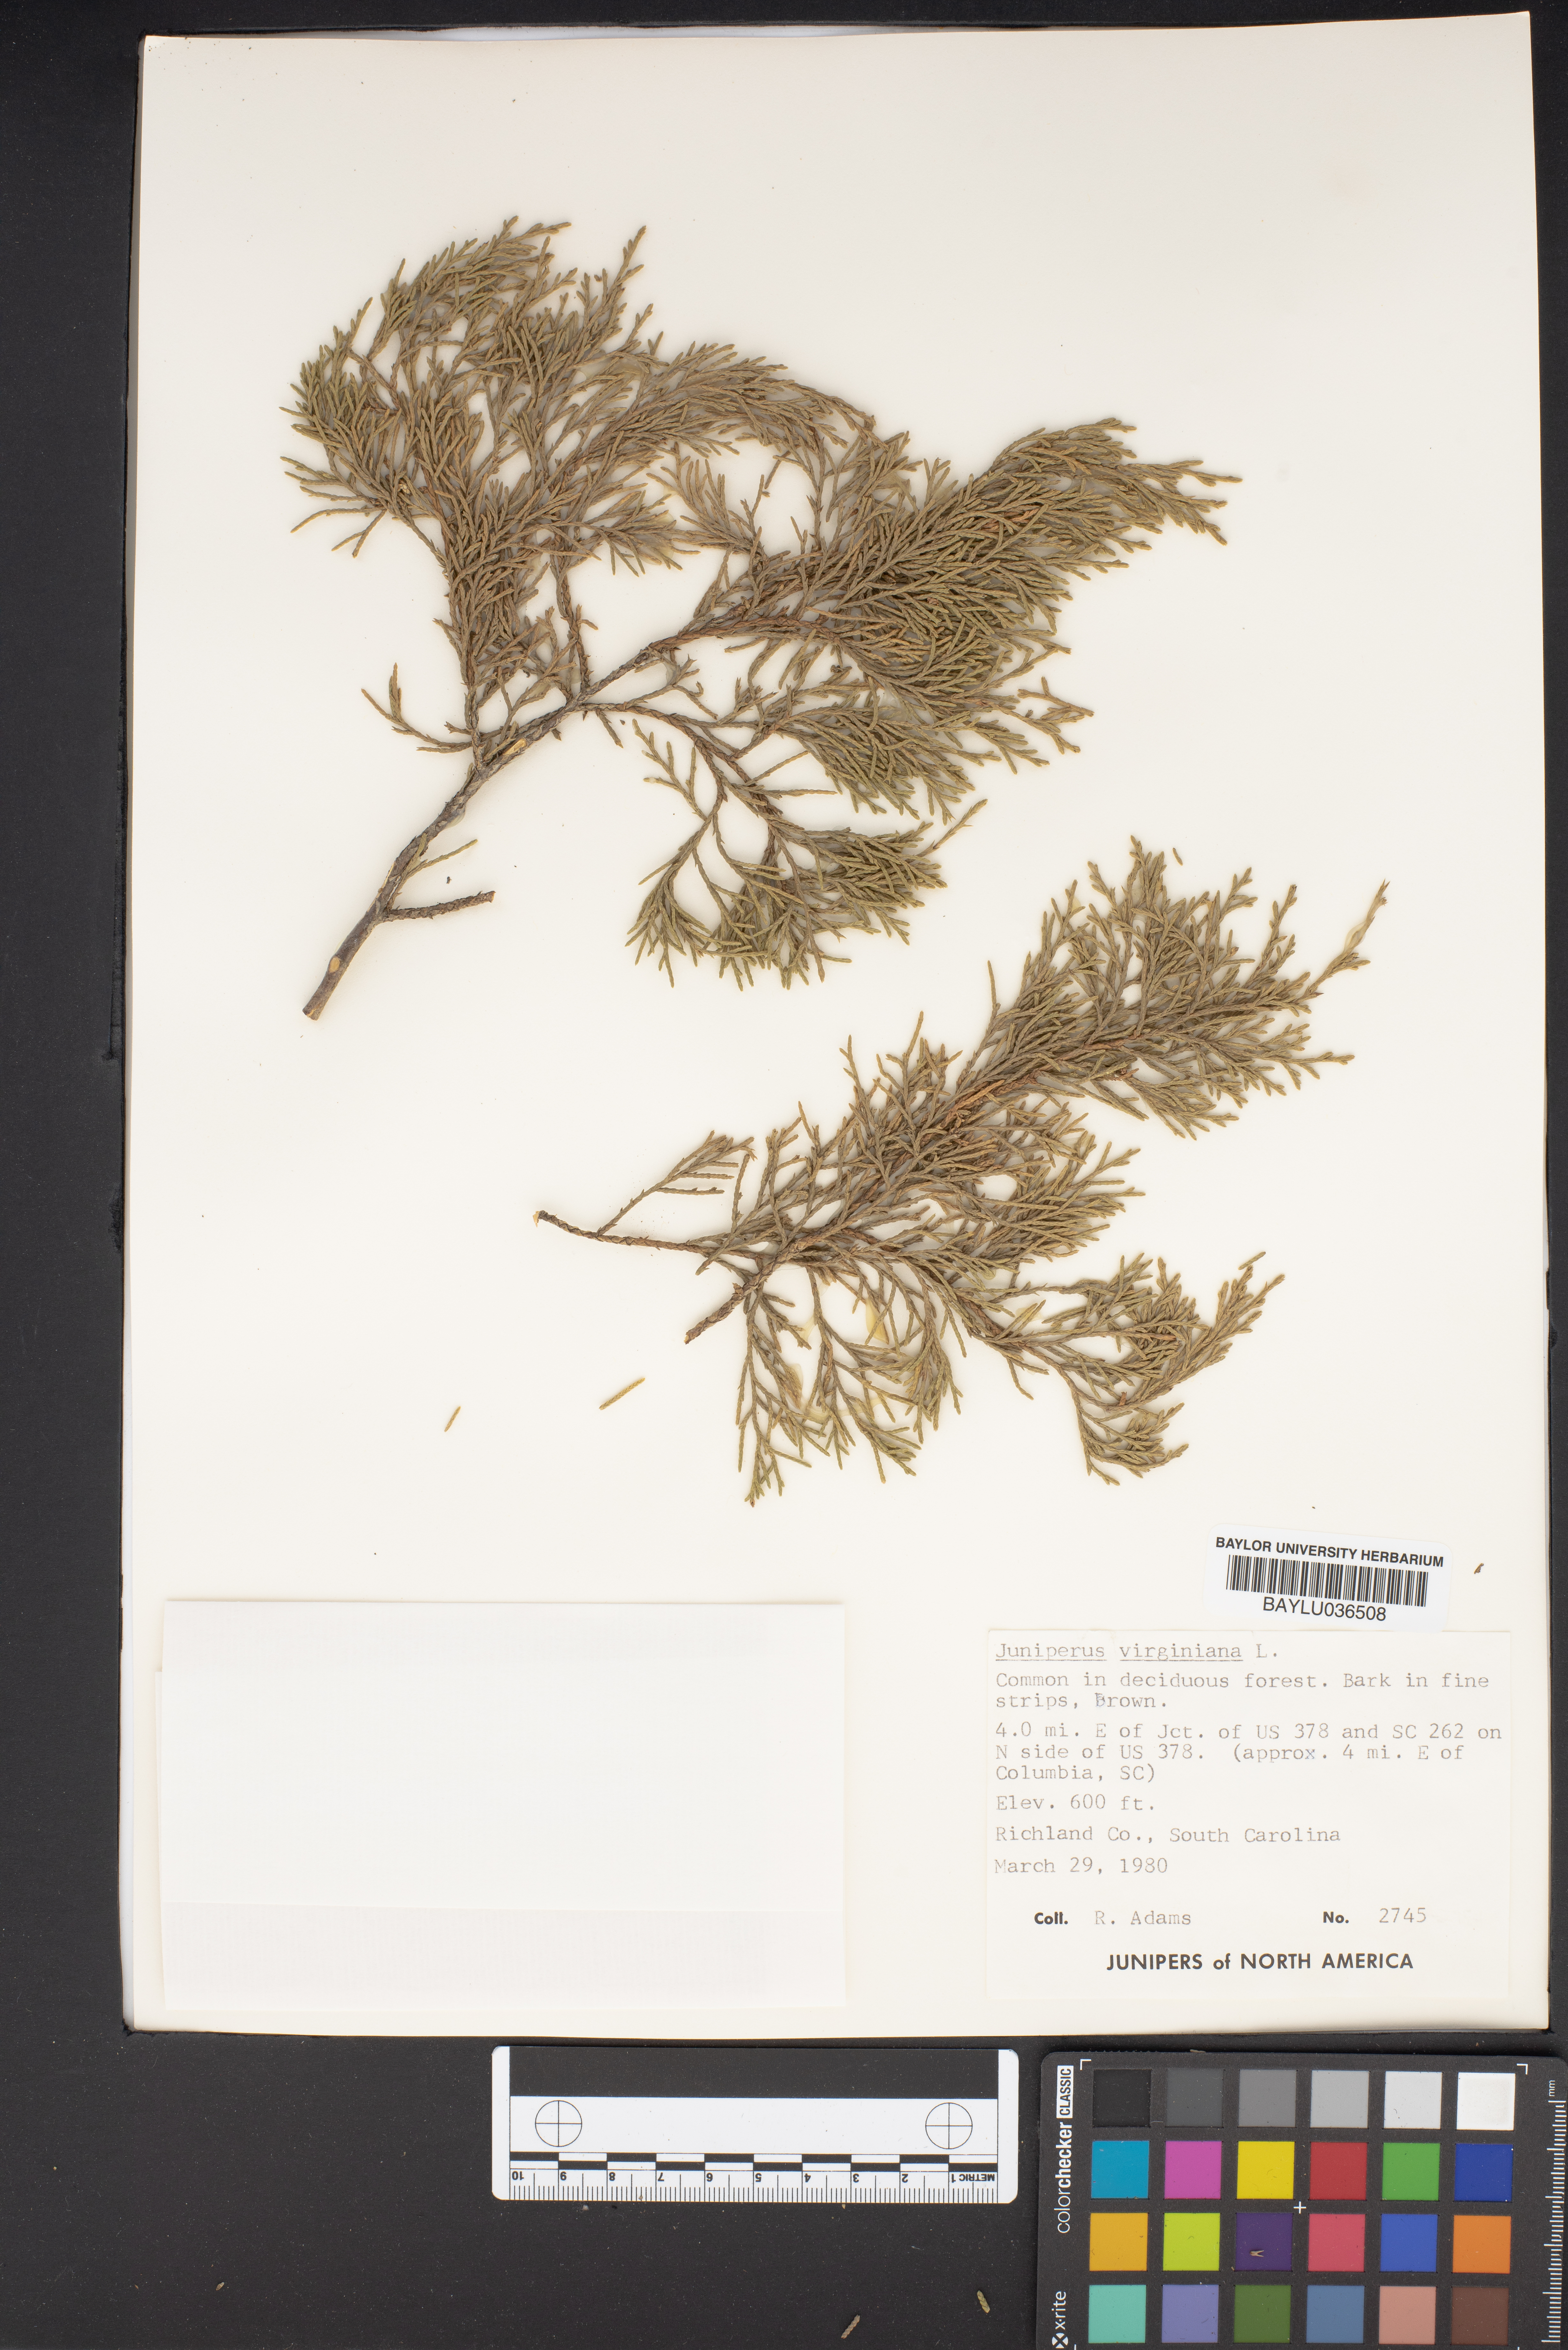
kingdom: Plantae
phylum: Tracheophyta
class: Pinopsida
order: Pinales
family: Cupressaceae
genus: Juniperus
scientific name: Juniperus virginiana
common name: Red juniper
